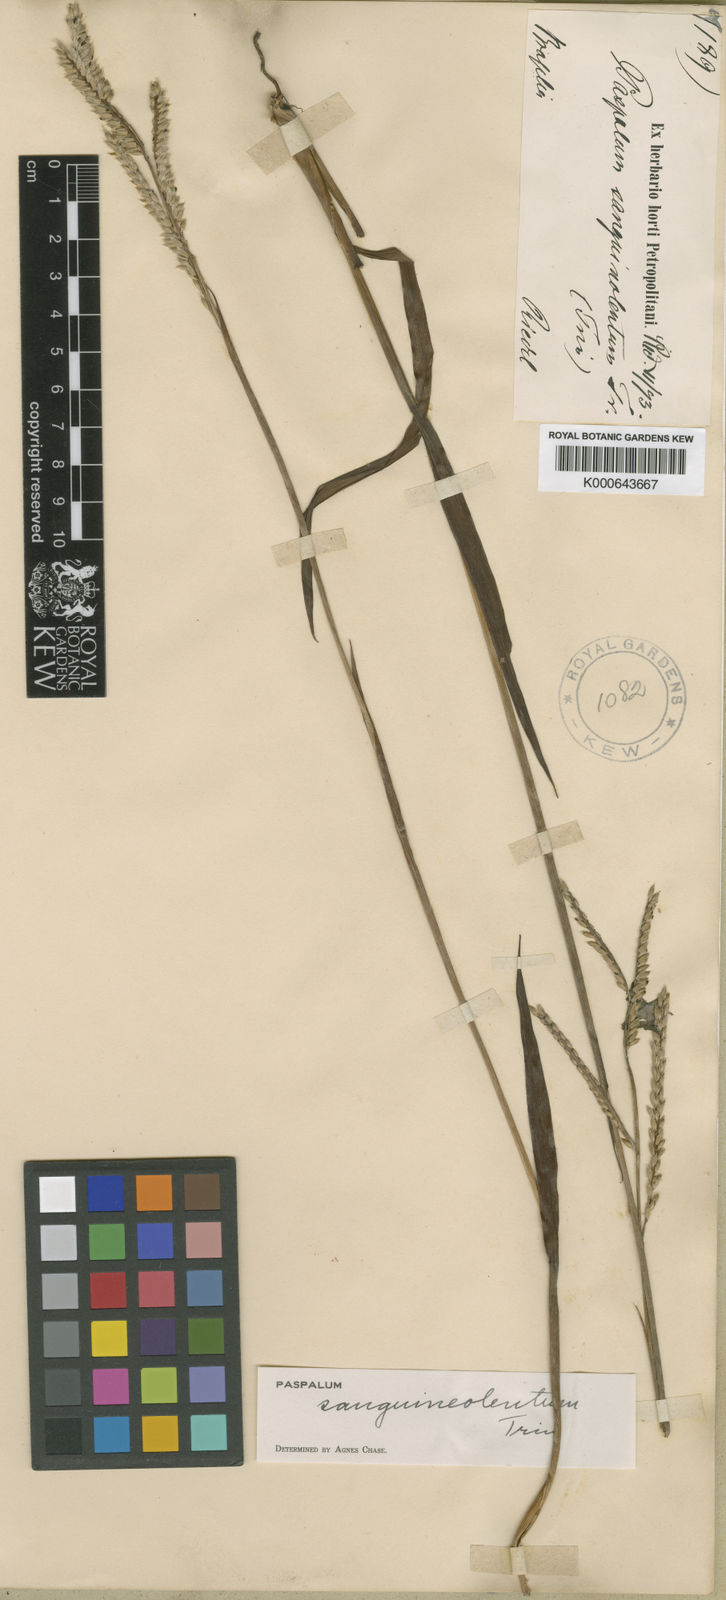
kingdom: Plantae
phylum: Tracheophyta
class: Liliopsida
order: Poales
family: Poaceae
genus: Paspalum
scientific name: Paspalum erianthum
